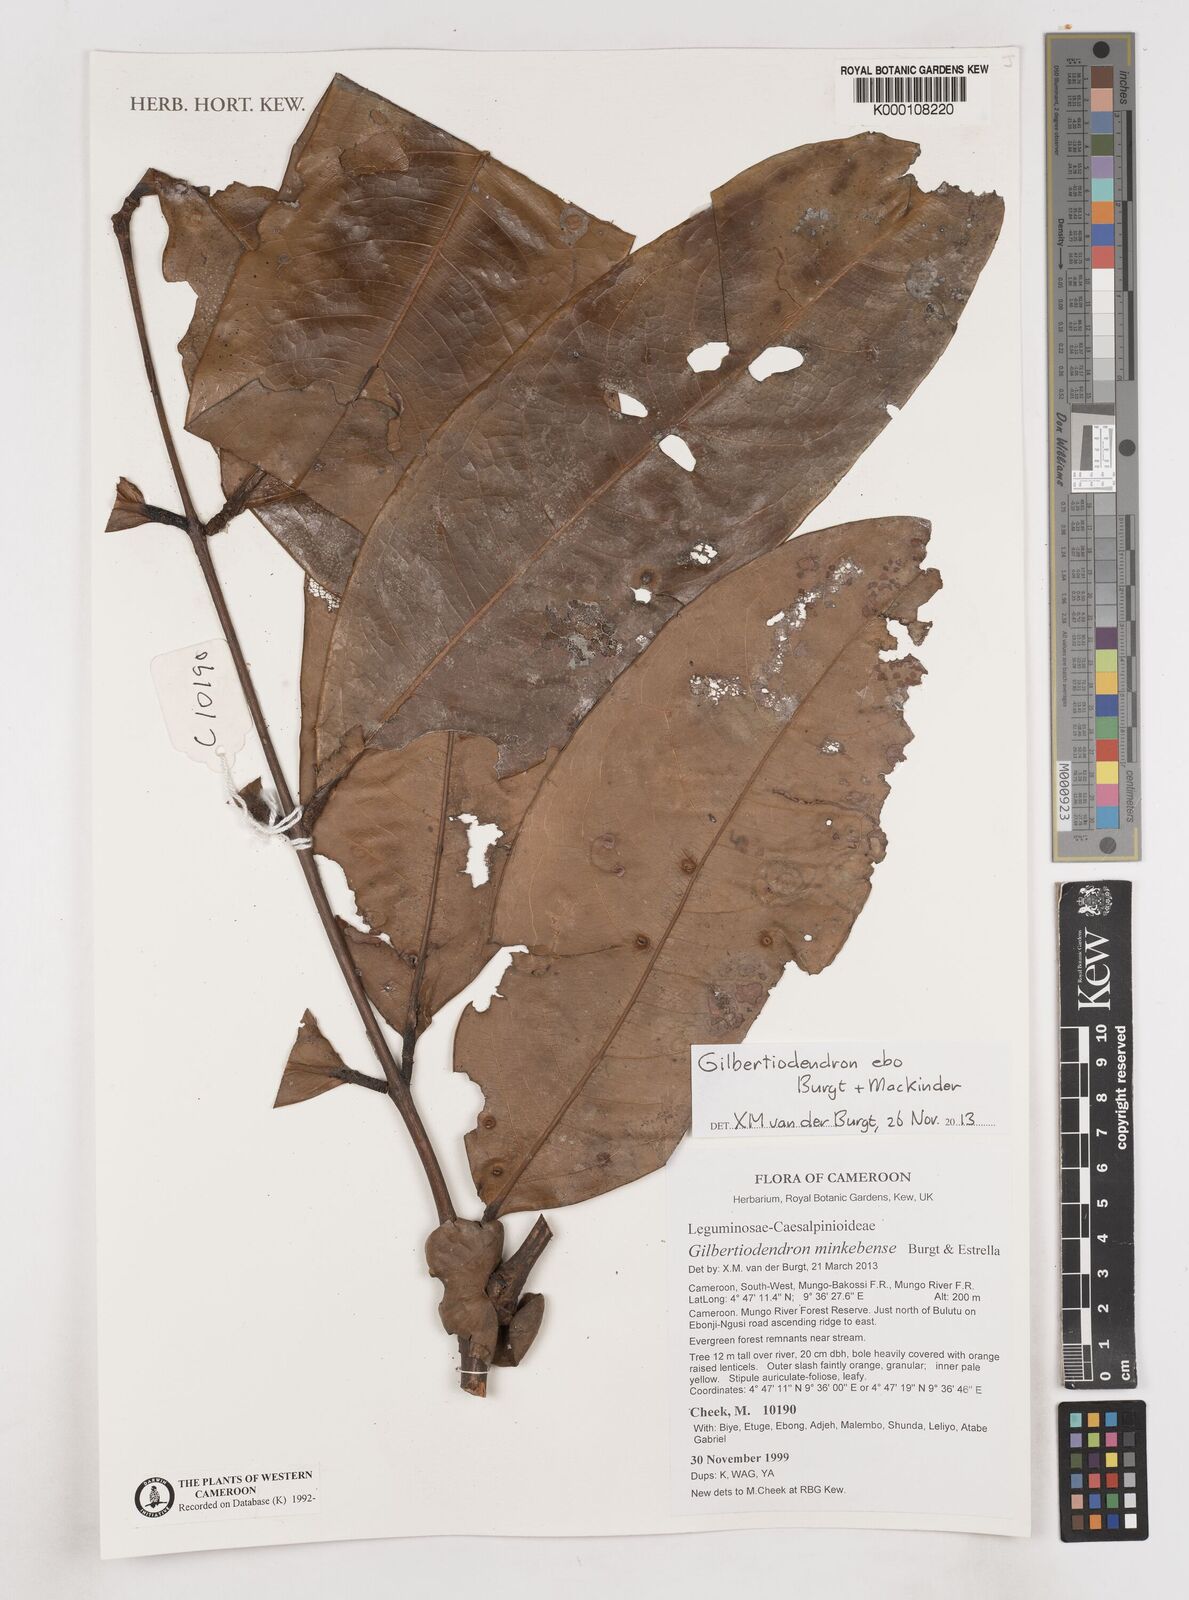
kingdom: Plantae
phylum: Tracheophyta
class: Magnoliopsida
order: Fabales
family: Fabaceae
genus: Gilbertiodendron
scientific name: Gilbertiodendron ebo
